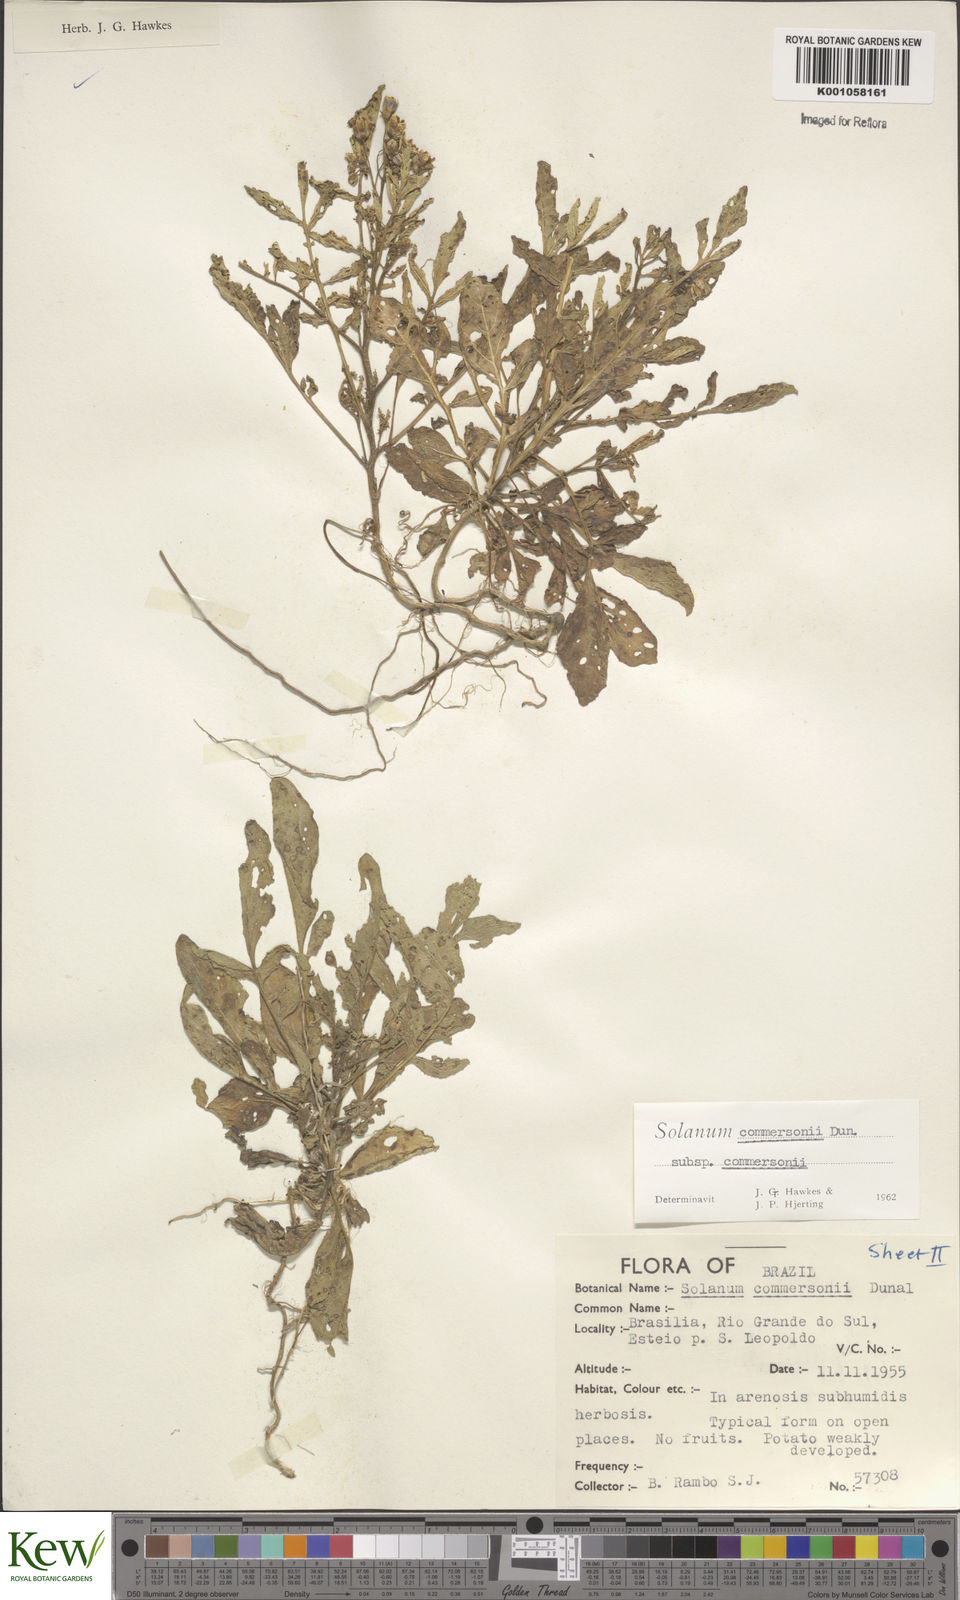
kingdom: Plantae
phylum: Tracheophyta
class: Magnoliopsida
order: Solanales
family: Solanaceae
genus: Solanum
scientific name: Solanum
